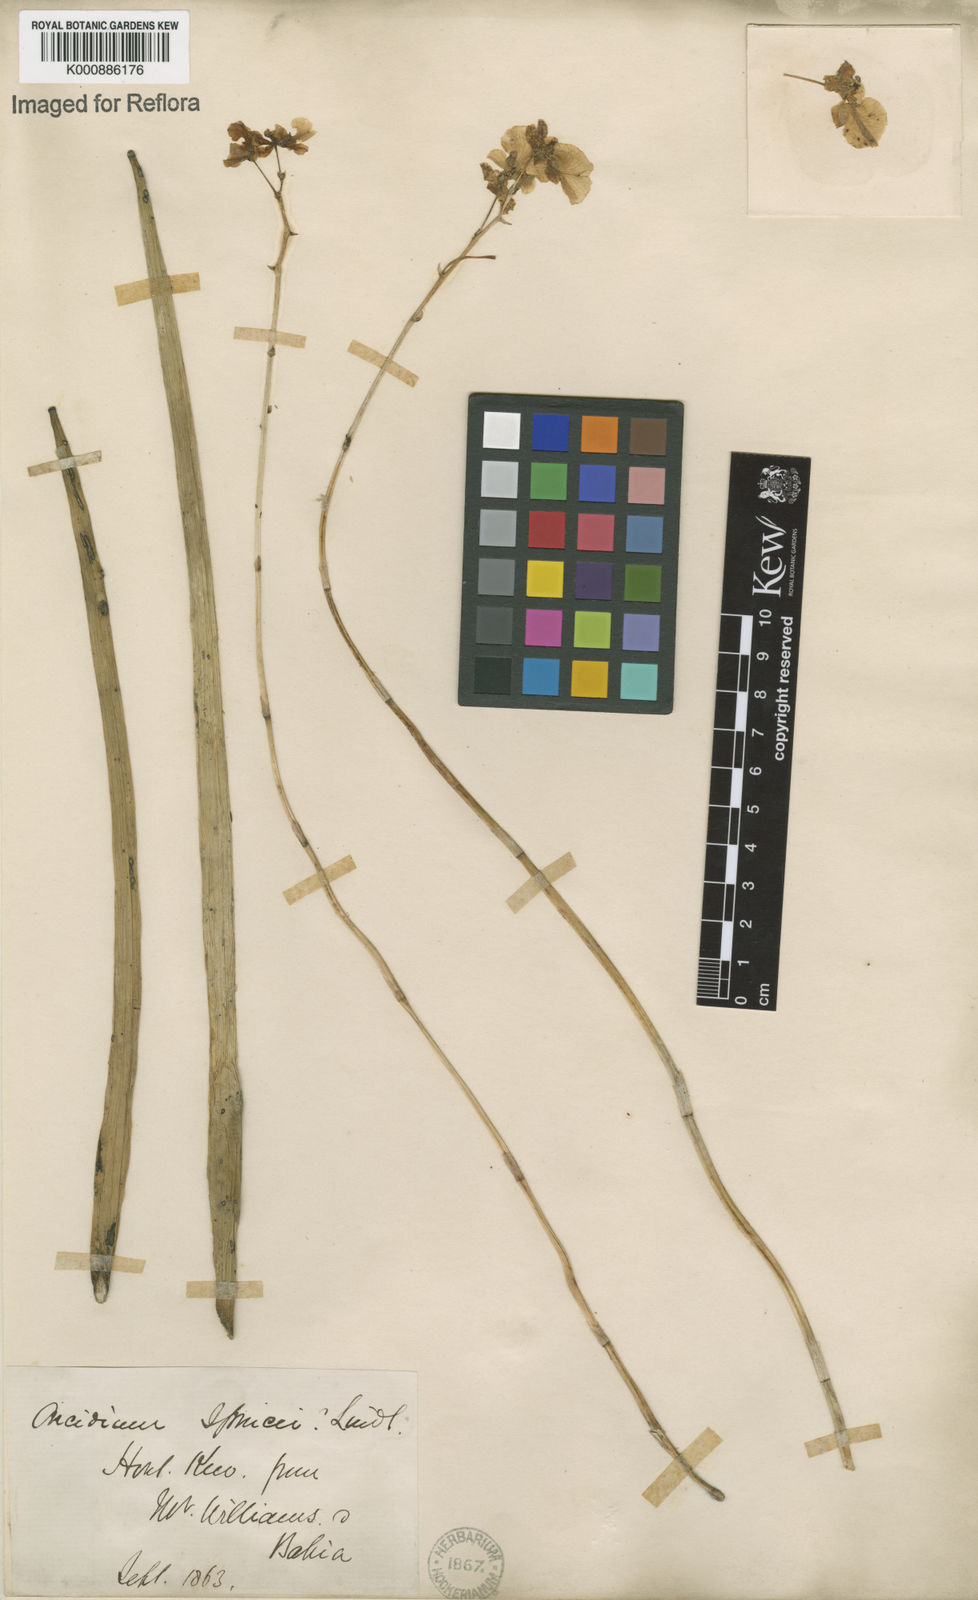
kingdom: Plantae
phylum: Tracheophyta
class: Liliopsida
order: Asparagales
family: Orchidaceae
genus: Trichocentrum
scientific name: Trichocentrum cebolleta
